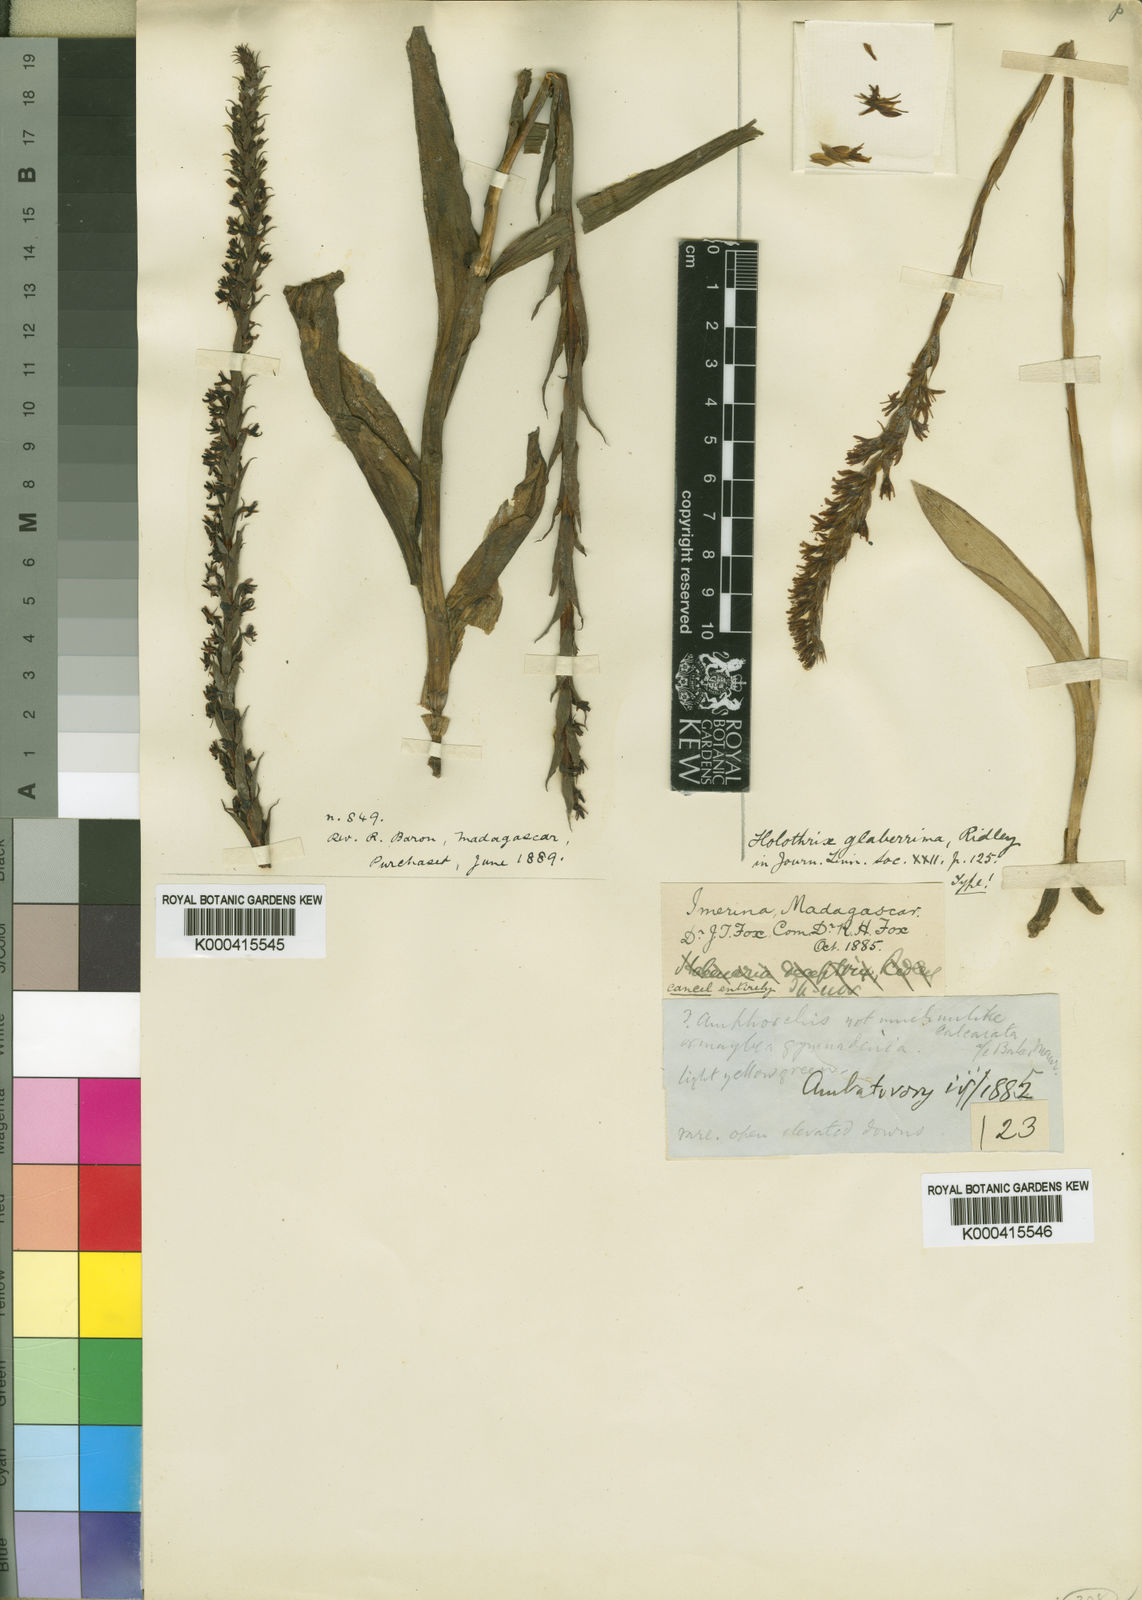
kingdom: Plantae
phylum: Tracheophyta
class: Liliopsida
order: Asparagales
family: Orchidaceae
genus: Benthamia
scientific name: Benthamia glaberrima
